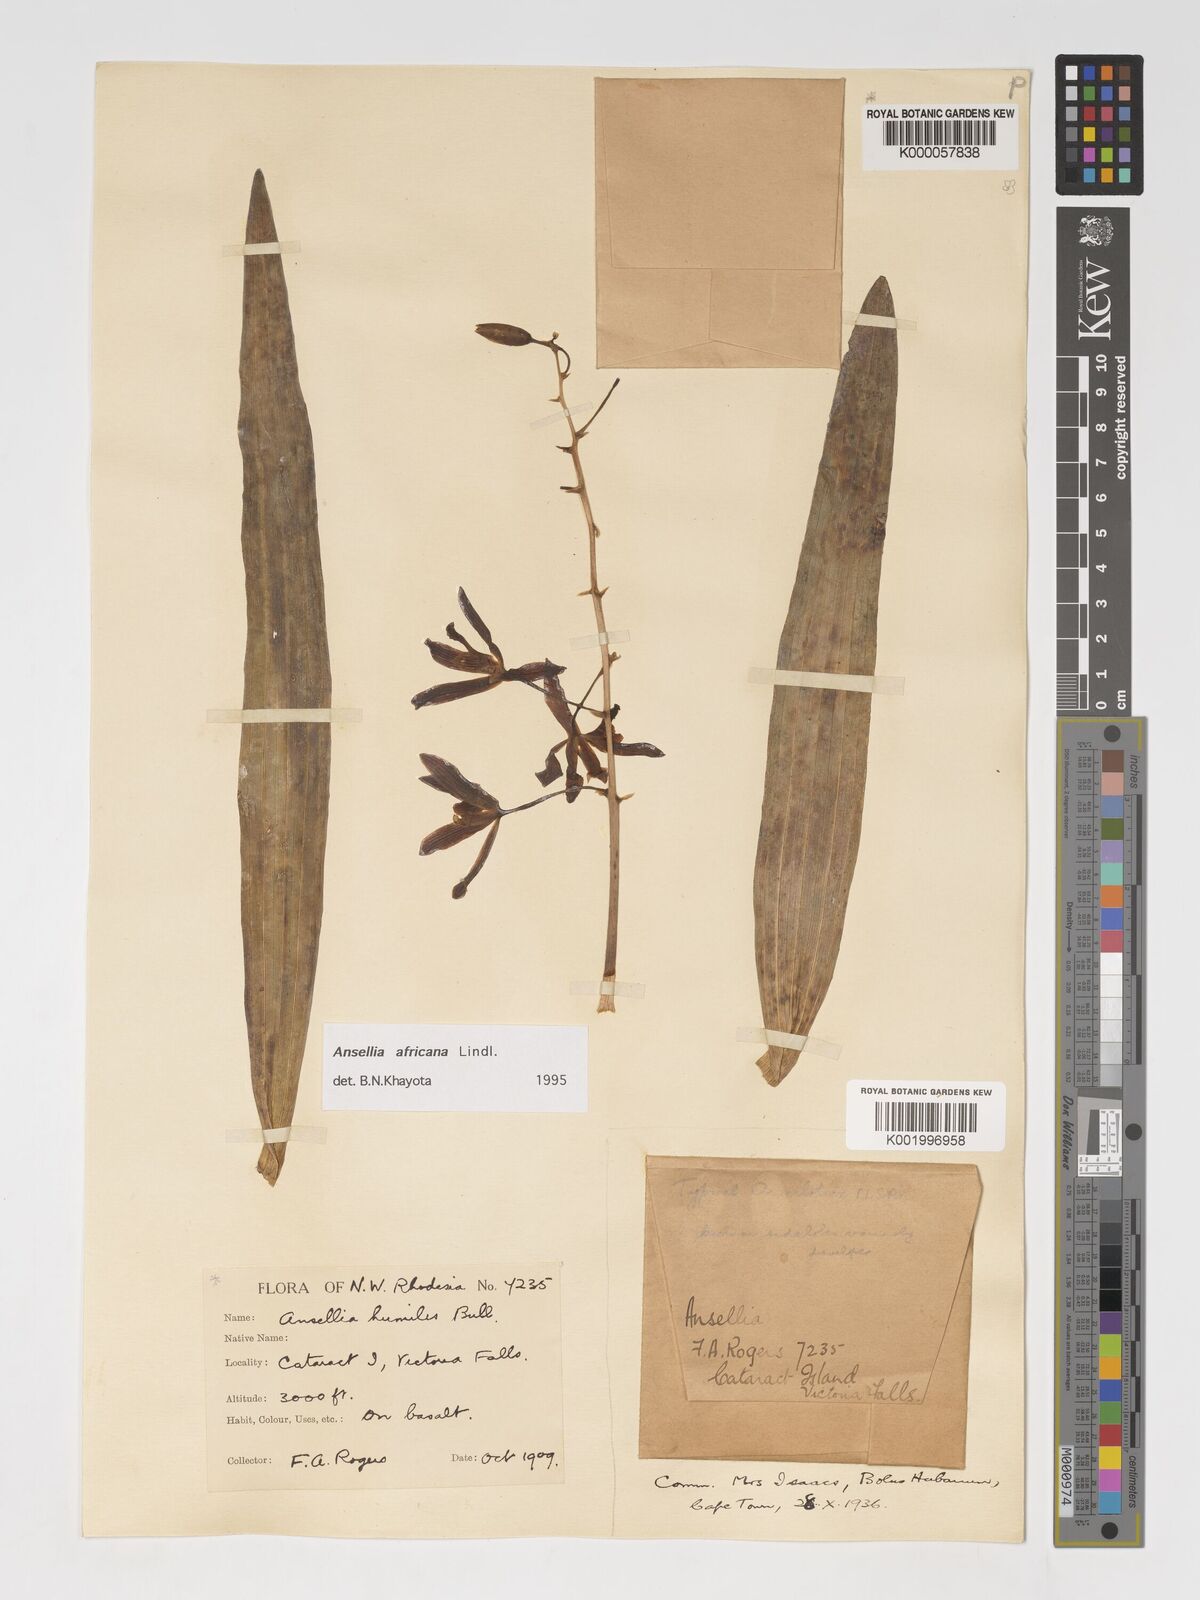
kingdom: Plantae
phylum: Tracheophyta
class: Liliopsida
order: Asparagales
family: Orchidaceae
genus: Ansellia
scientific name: Ansellia africana
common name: African ansellia
